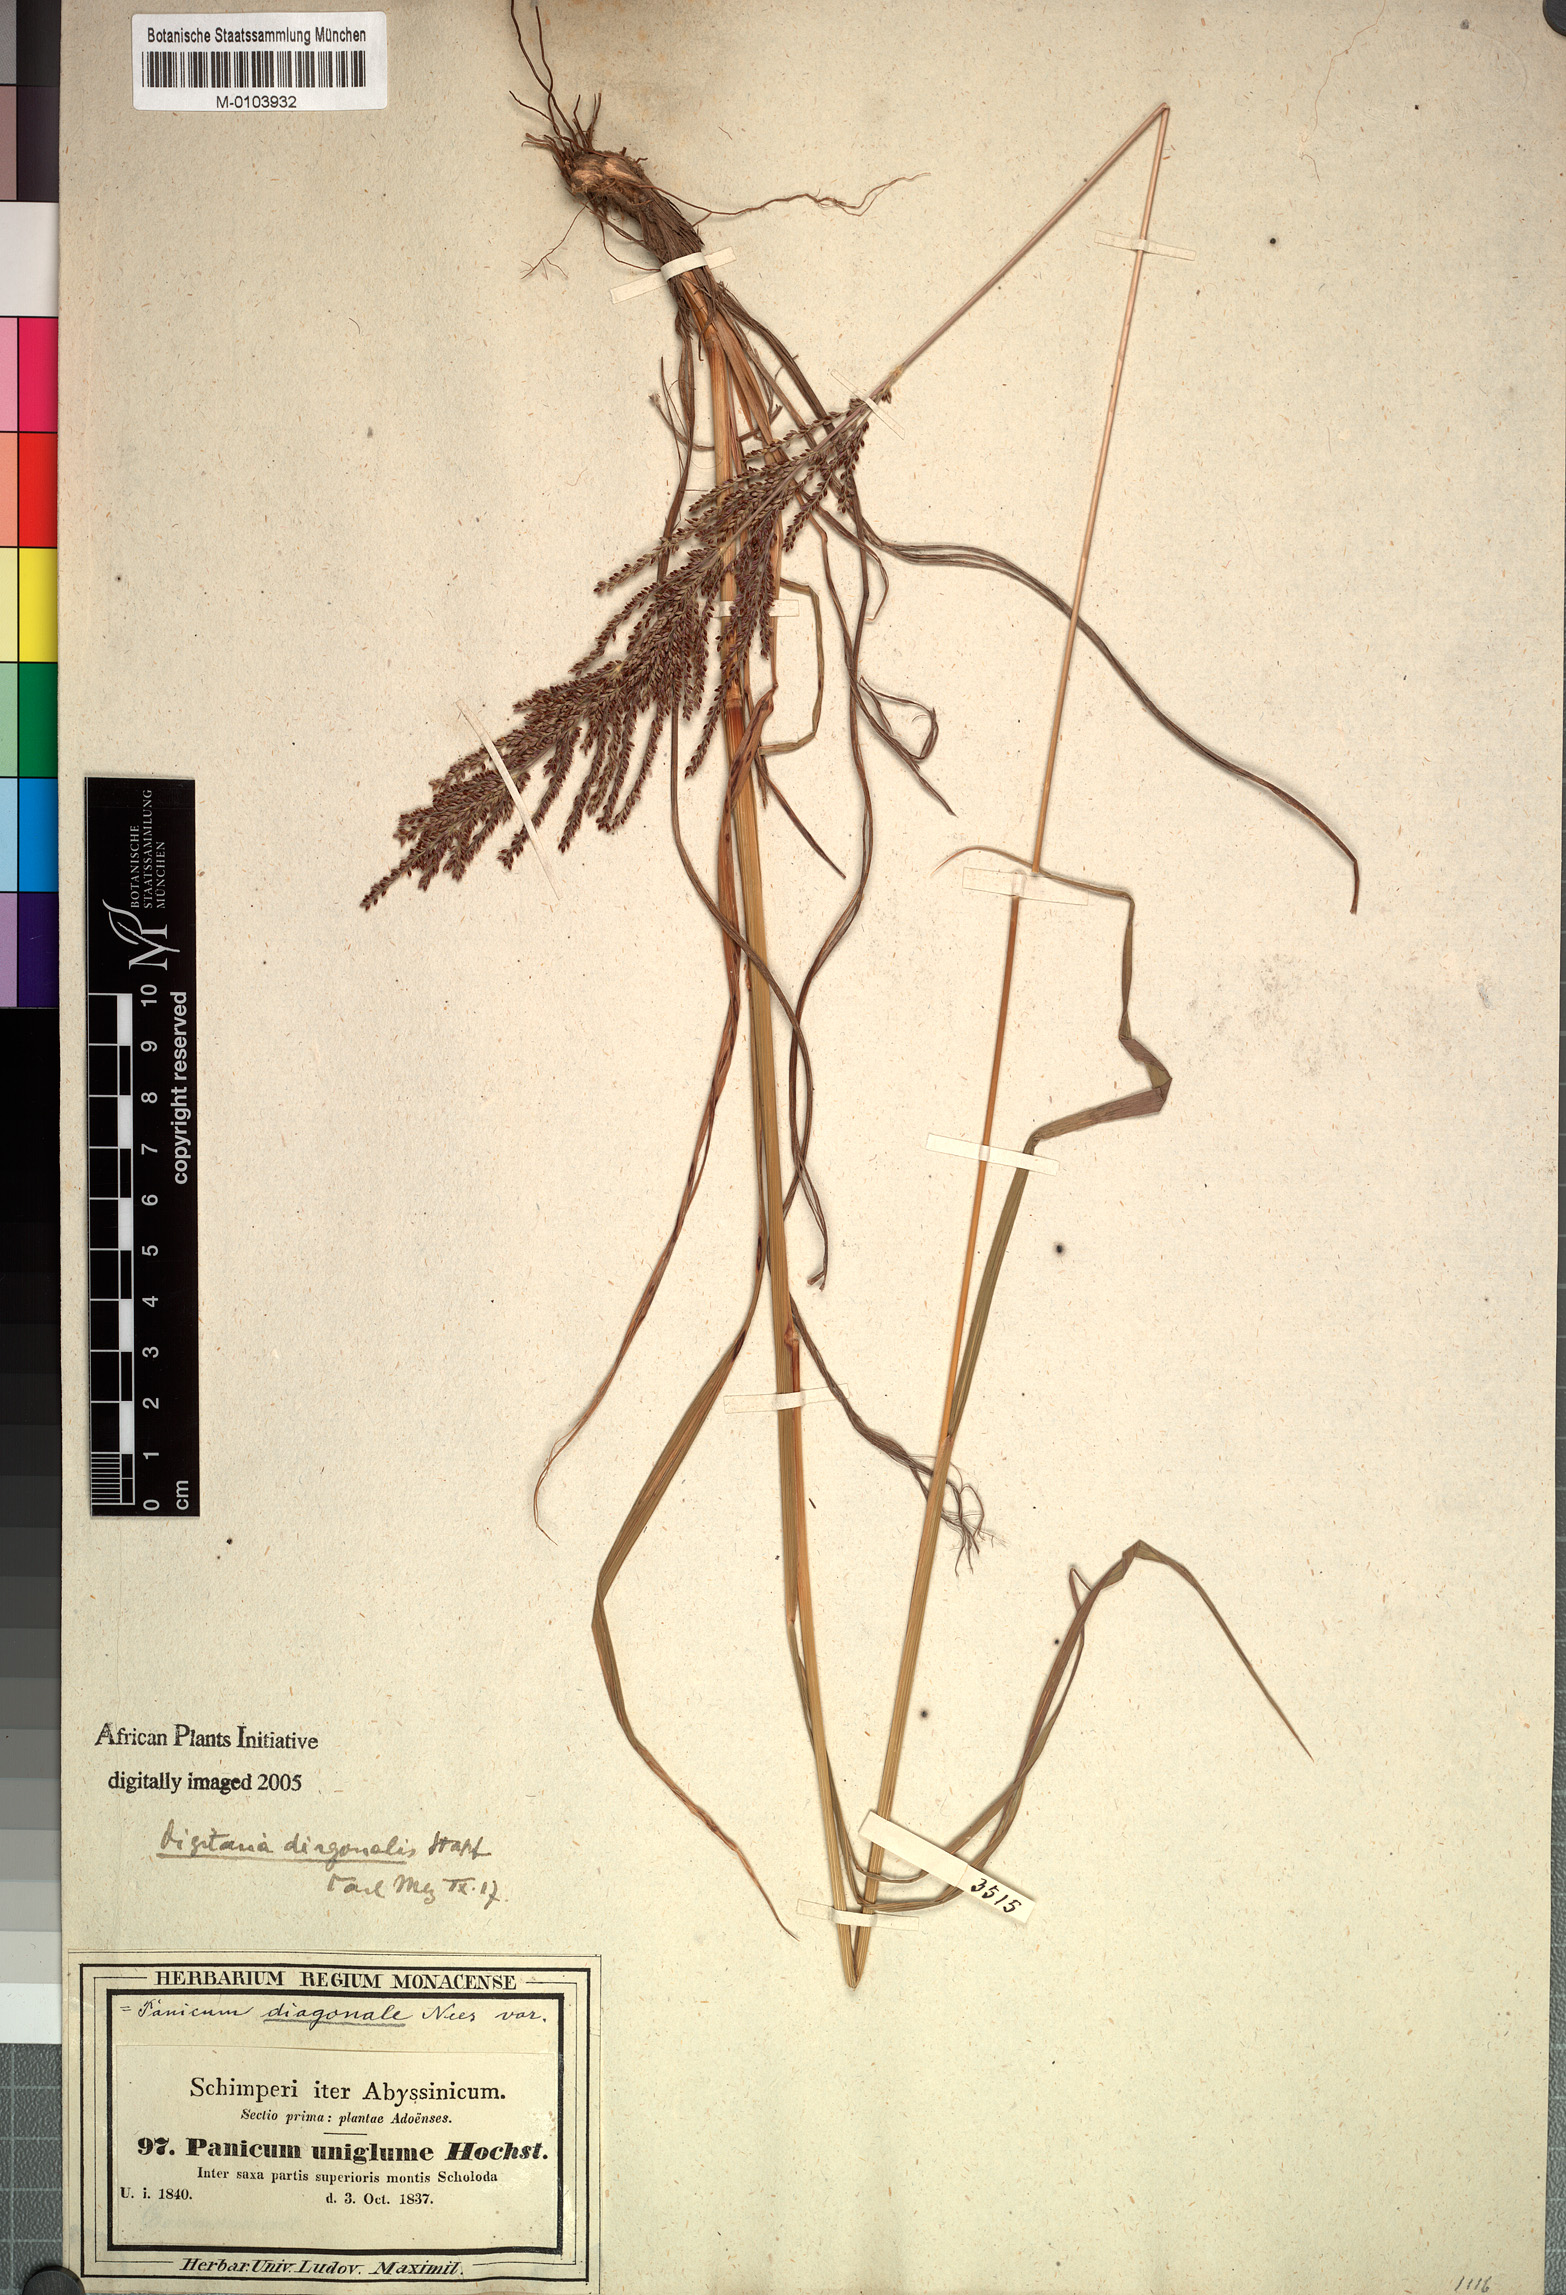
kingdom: Plantae
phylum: Tracheophyta
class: Liliopsida
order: Poales
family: Poaceae
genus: Digitaria
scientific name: Digitaria diagonalis
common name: Brown-seed finger grass
